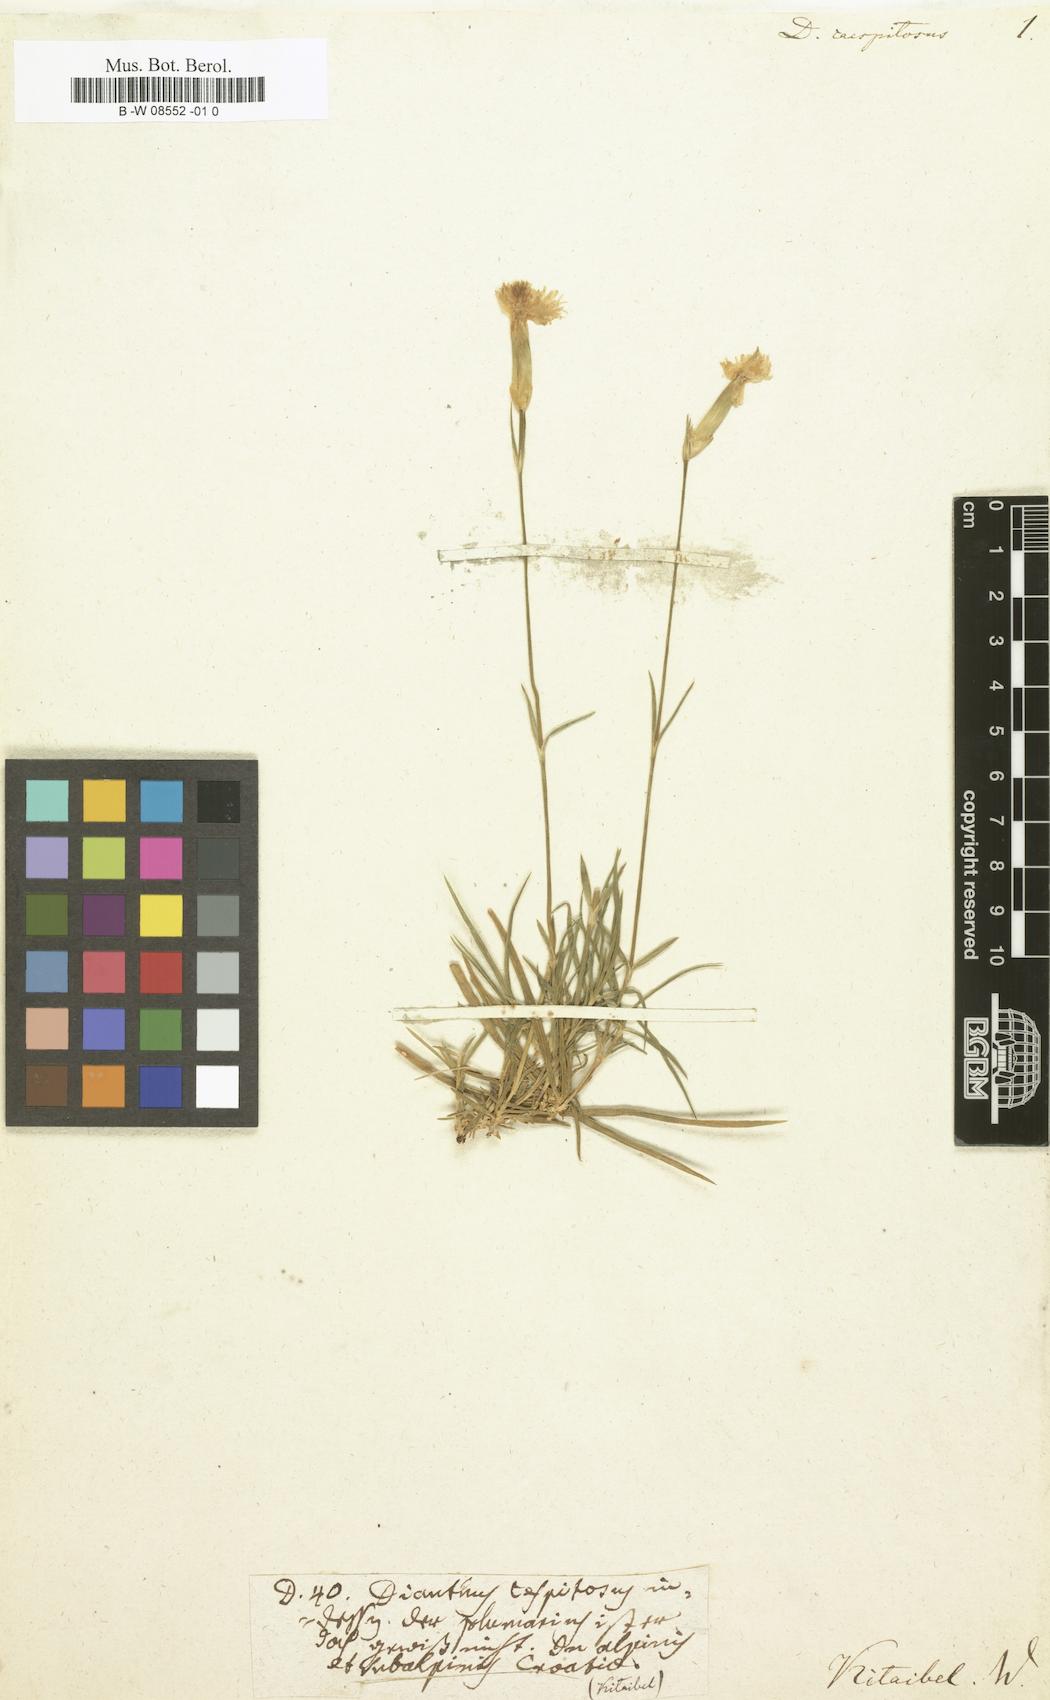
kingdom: Plantae
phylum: Tracheophyta
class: Magnoliopsida
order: Caryophyllales
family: Caryophyllaceae
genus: Dianthus
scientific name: Dianthus caespitosus
